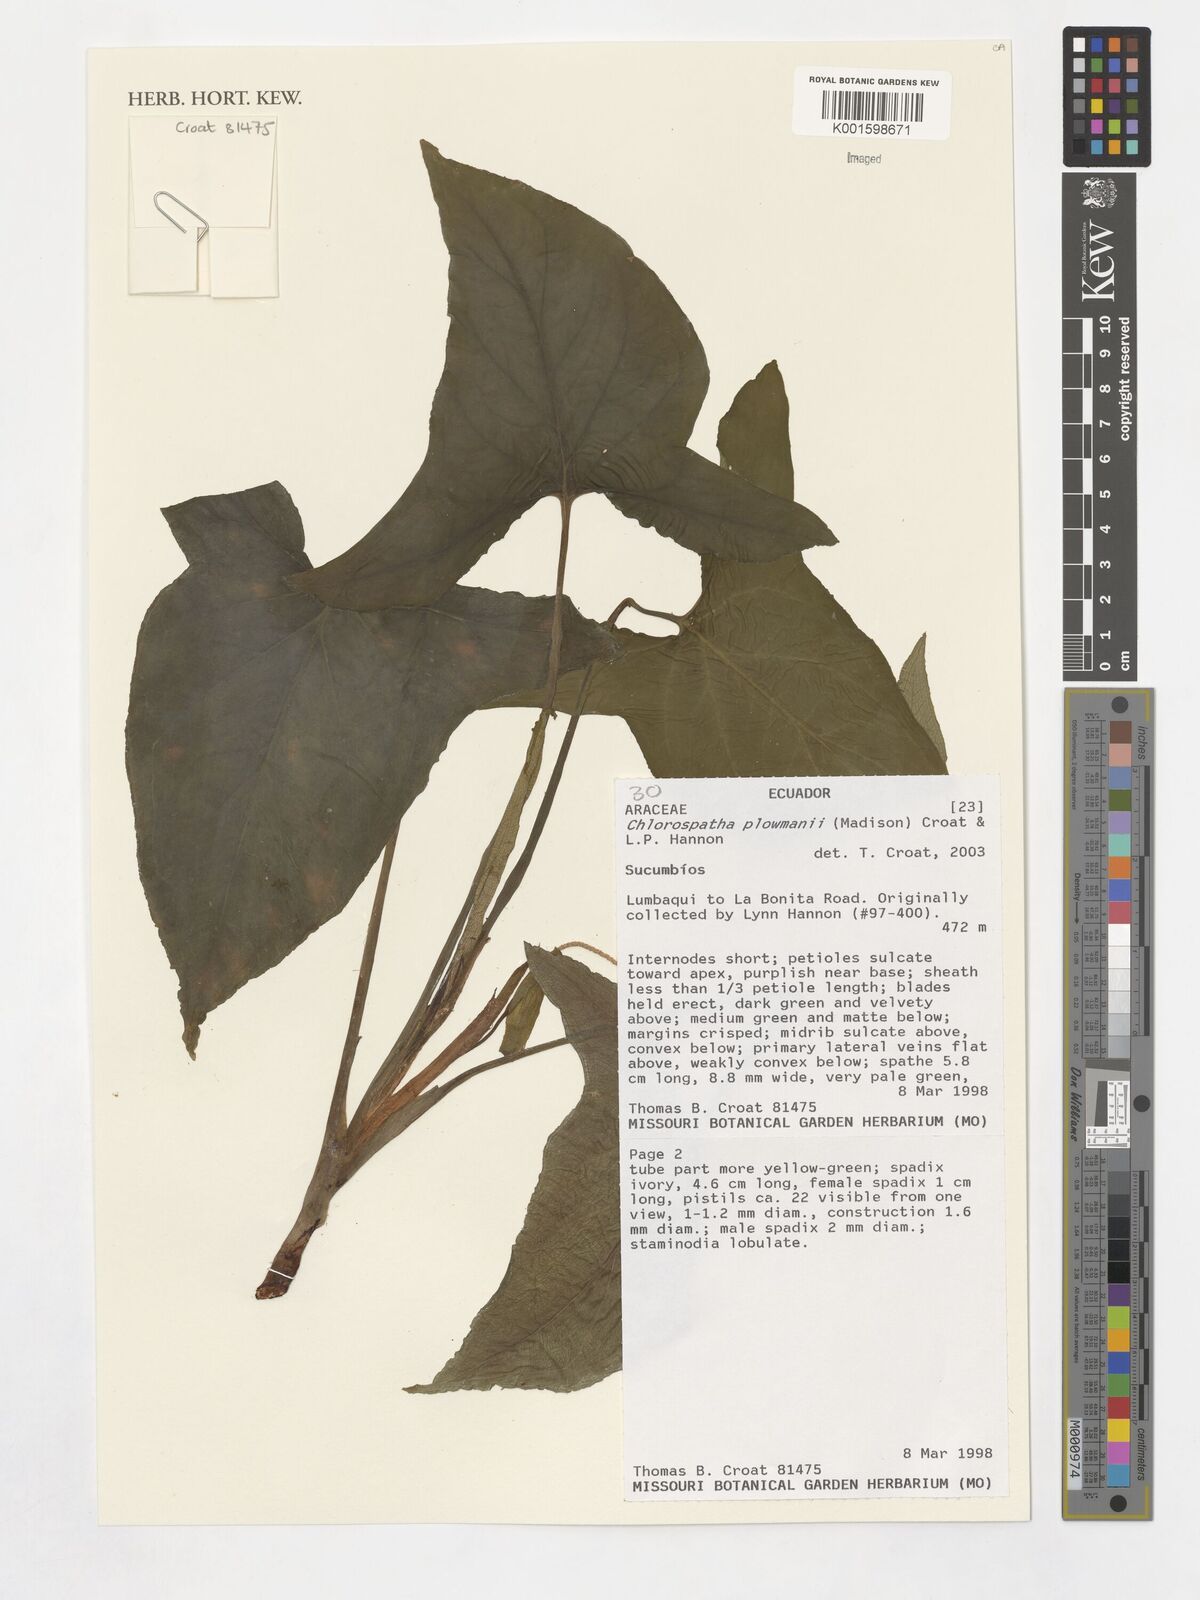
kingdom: Plantae
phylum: Tracheophyta
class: Liliopsida
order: Alismatales
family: Araceae
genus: Chlorospatha
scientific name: Chlorospatha plowmanii
